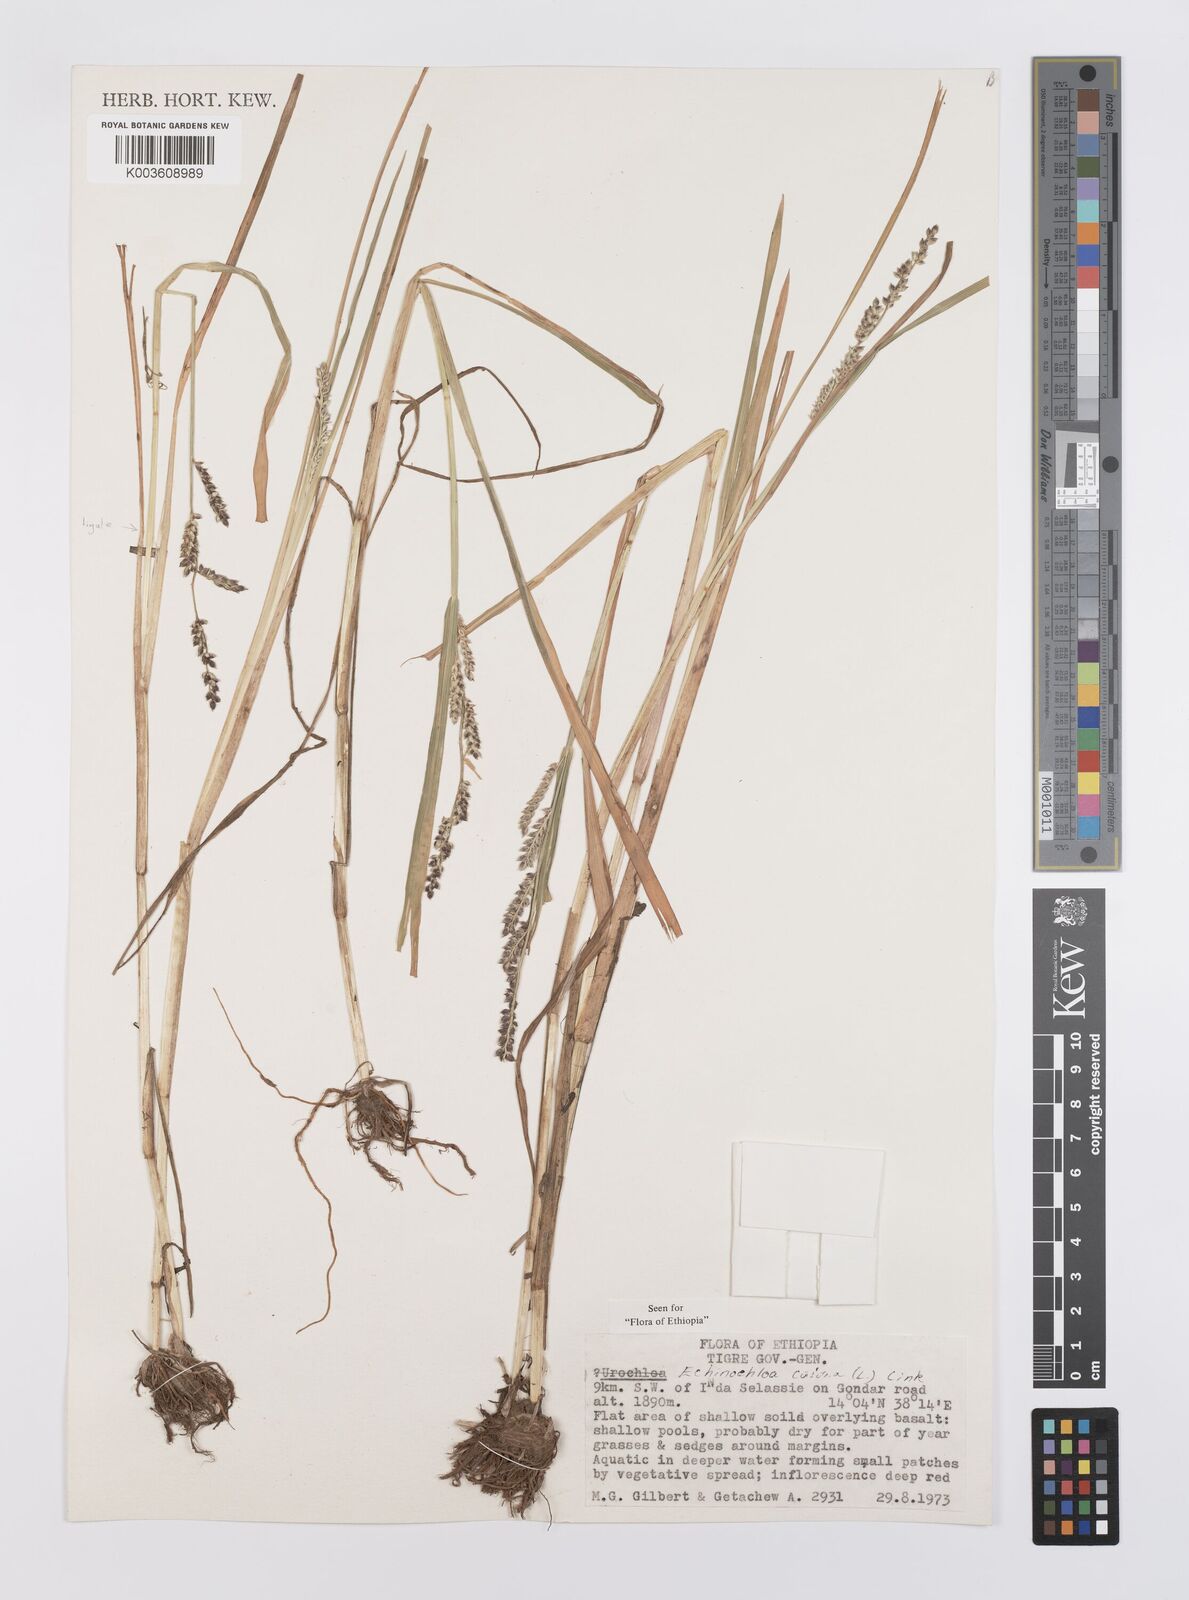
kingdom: Plantae
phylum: Tracheophyta
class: Liliopsida
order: Poales
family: Poaceae
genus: Echinochloa
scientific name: Echinochloa colonum
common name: Jungle rice
